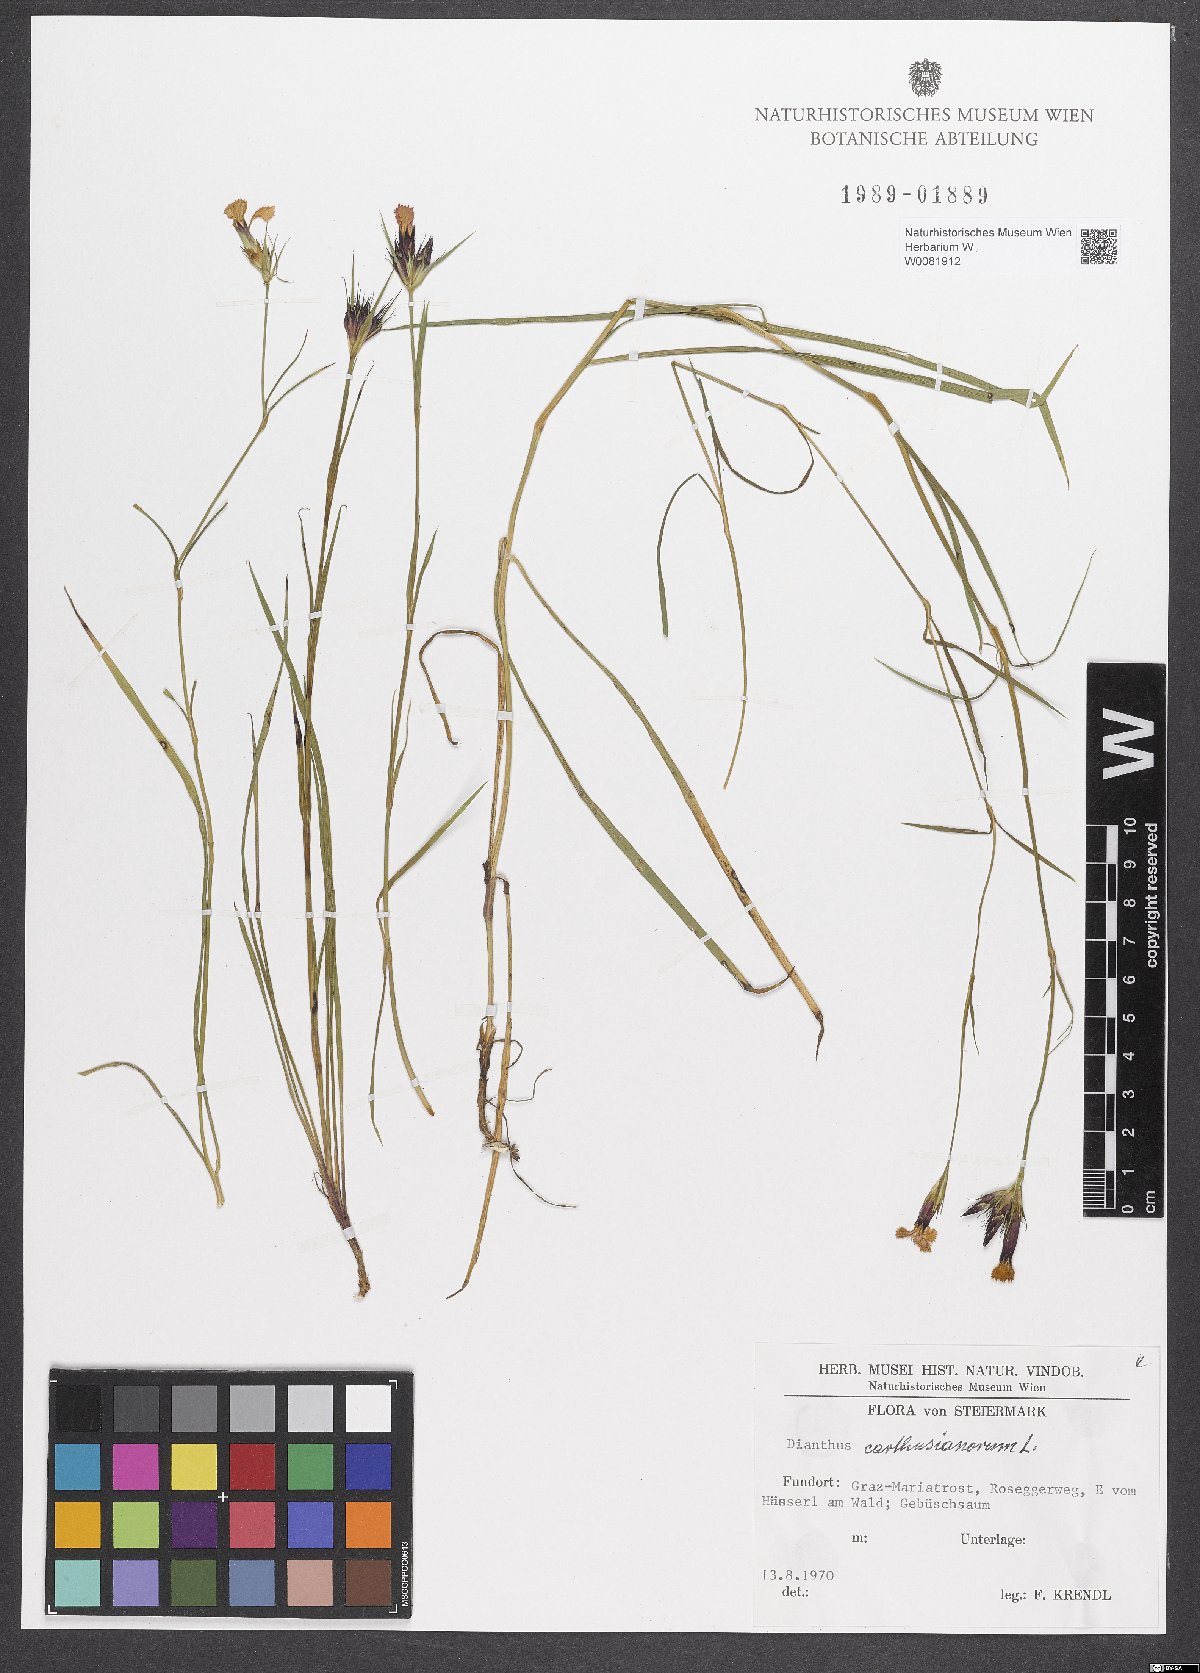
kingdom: Plantae
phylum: Tracheophyta
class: Magnoliopsida
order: Caryophyllales
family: Caryophyllaceae
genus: Dianthus
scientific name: Dianthus carthusianorum
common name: Carthusian pink
